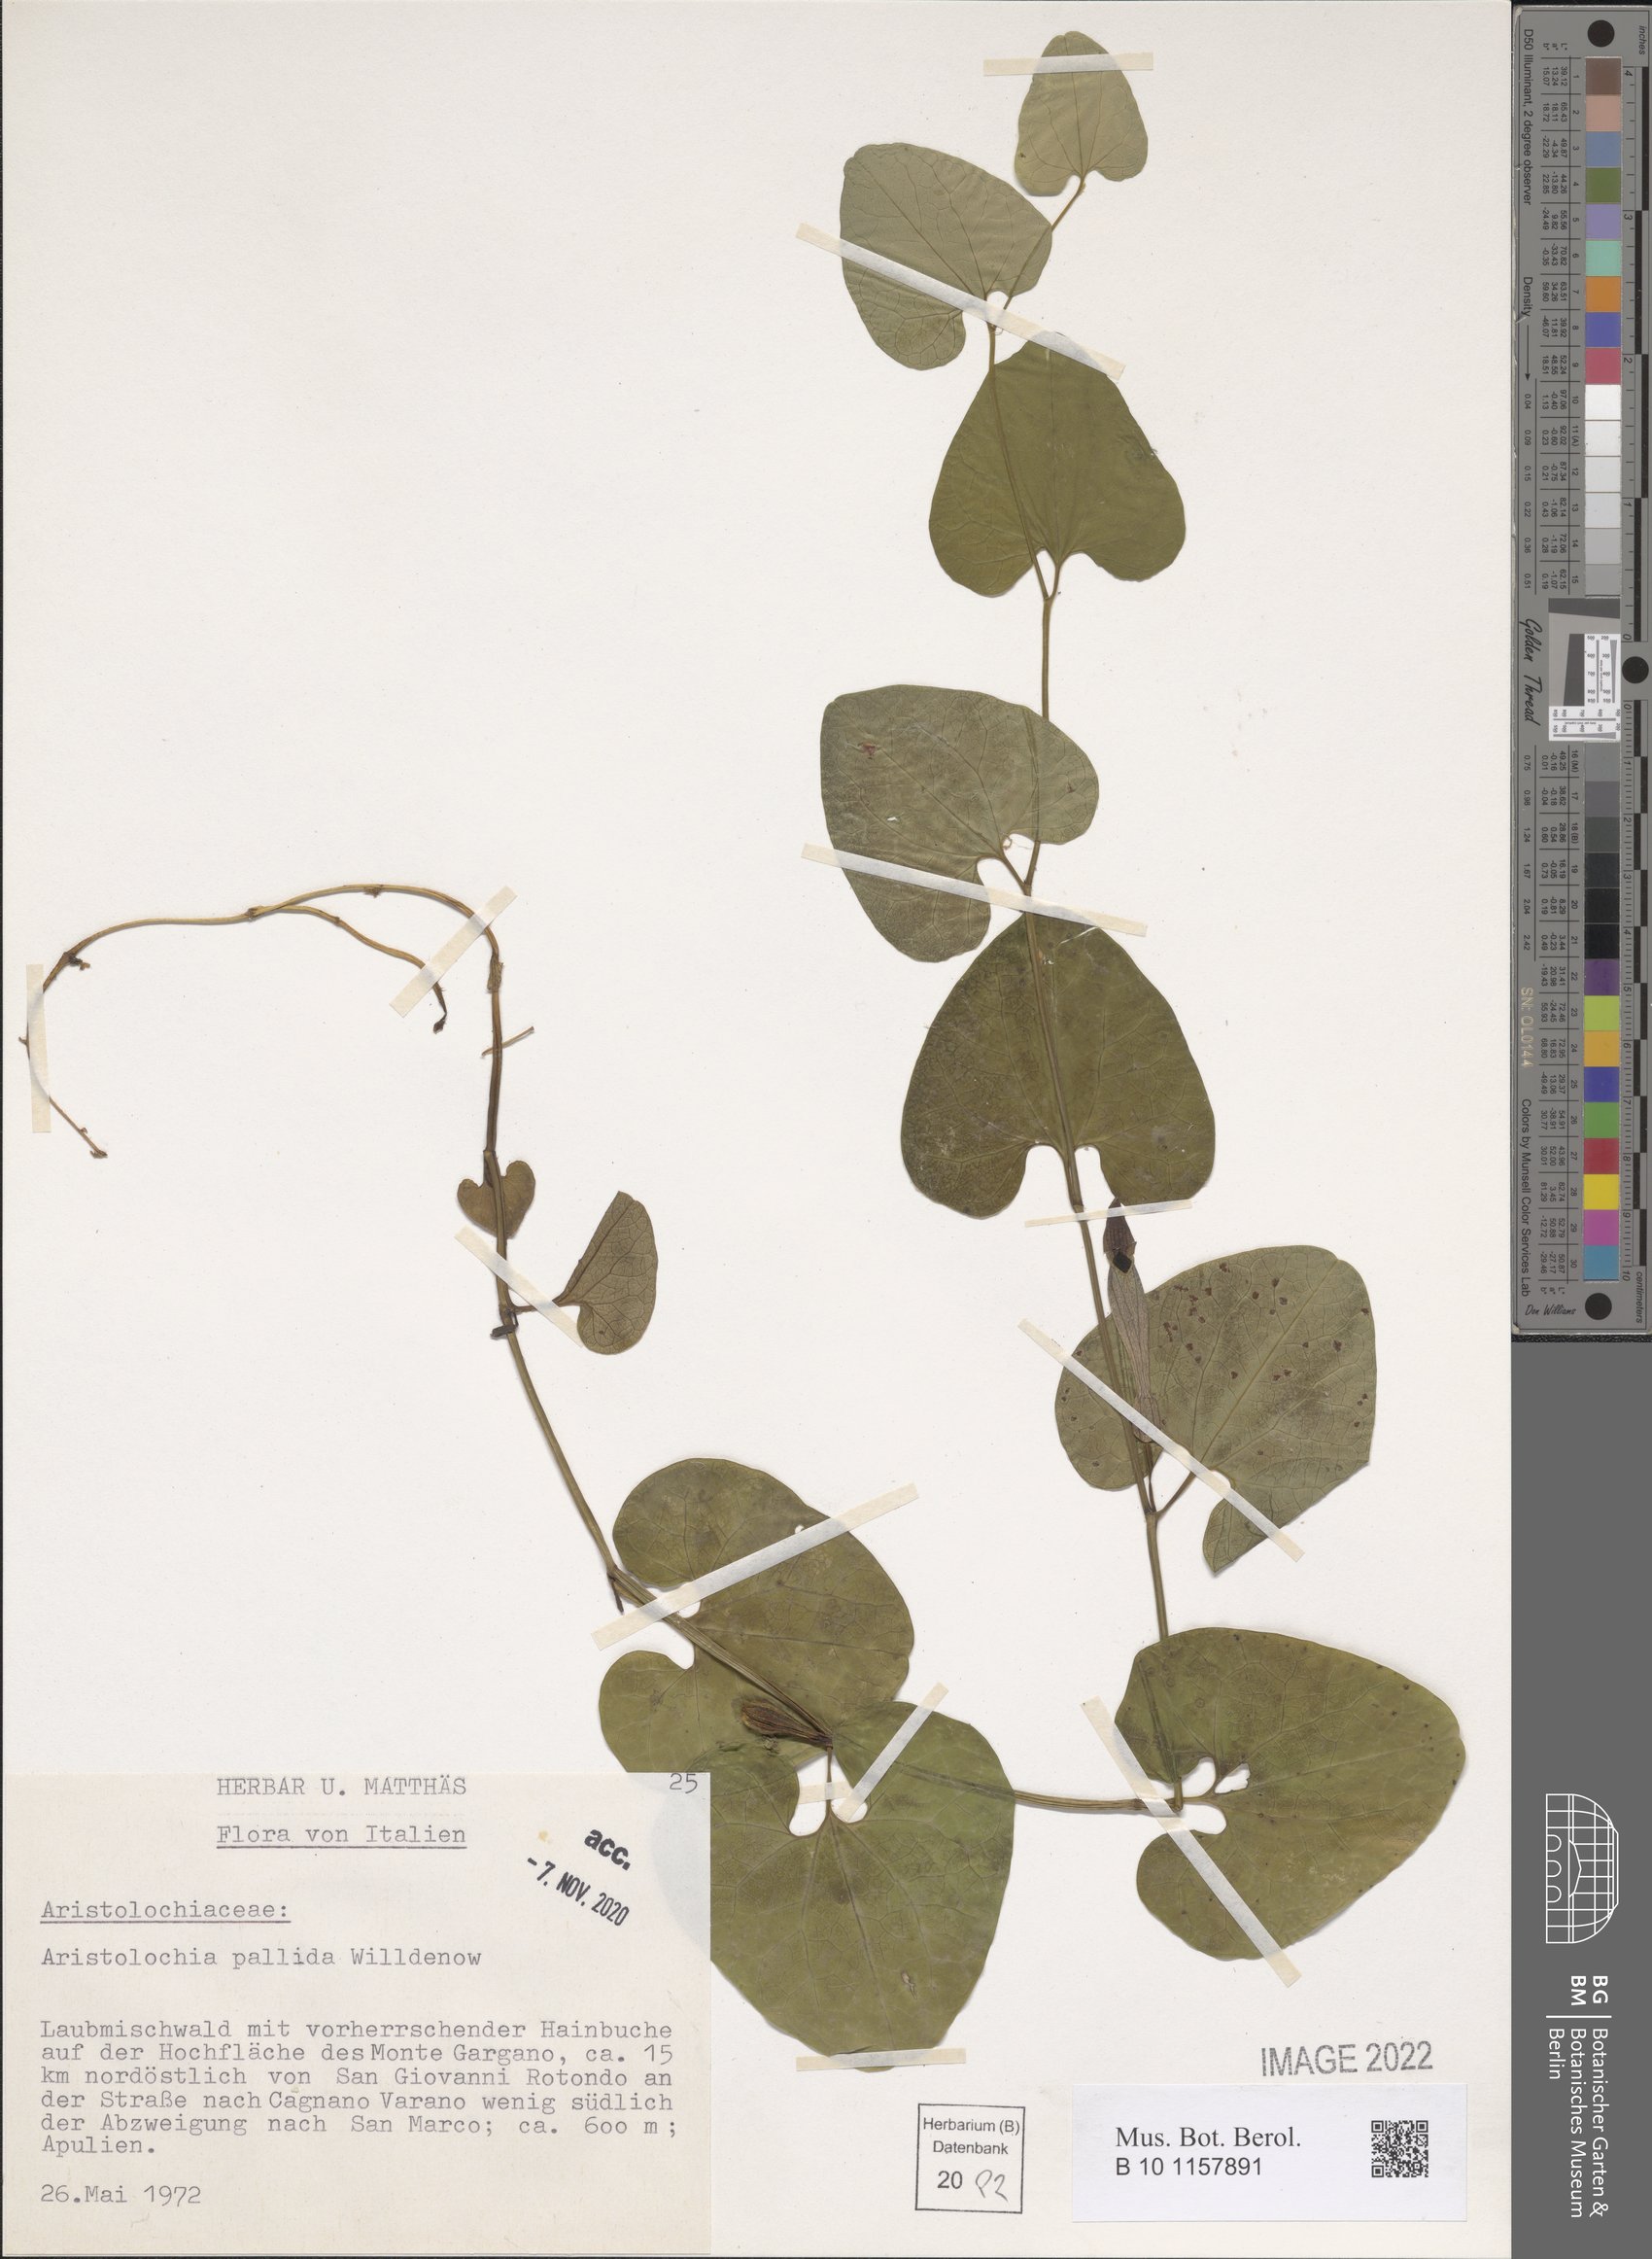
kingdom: Plantae
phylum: Tracheophyta
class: Magnoliopsida
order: Piperales
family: Aristolochiaceae
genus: Aristolochia
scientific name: Aristolochia pallida
